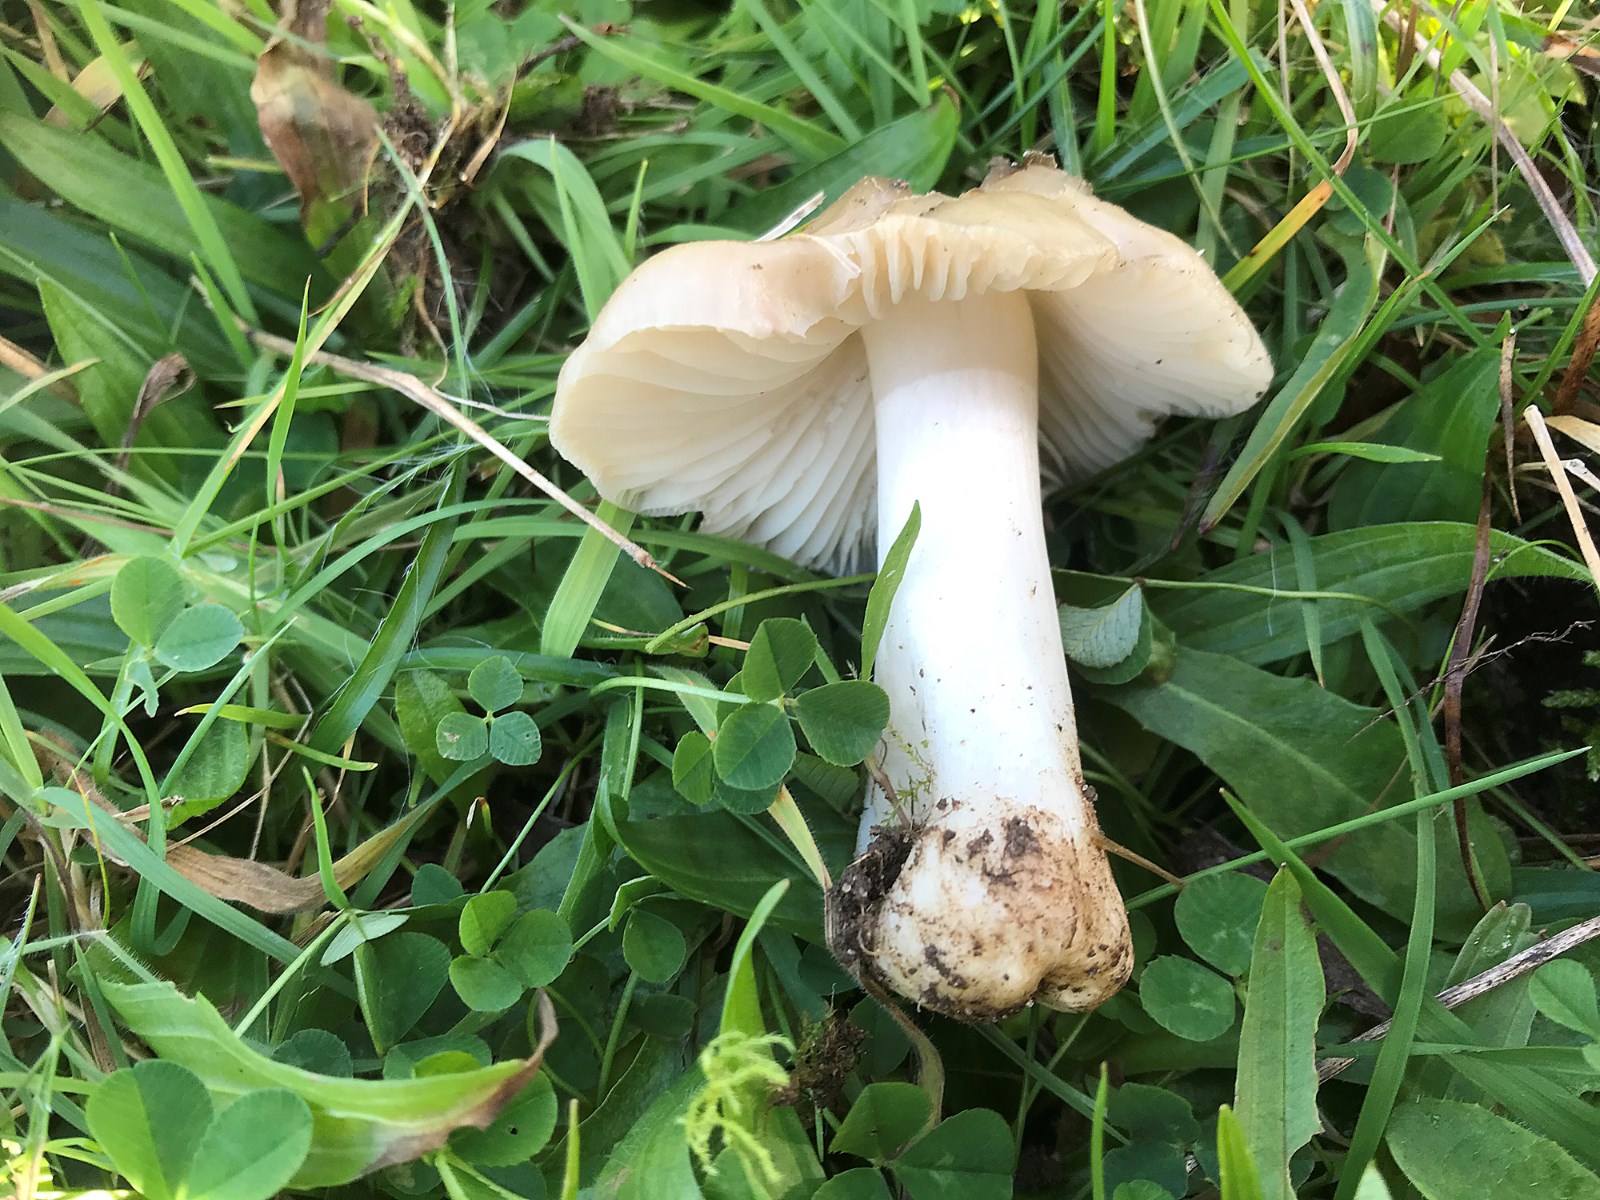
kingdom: Fungi
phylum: Basidiomycota
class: Agaricomycetes
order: Agaricales
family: Hygrophoraceae
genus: Cuphophyllus
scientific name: Cuphophyllus fornicatus
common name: gråbrun vokshat
